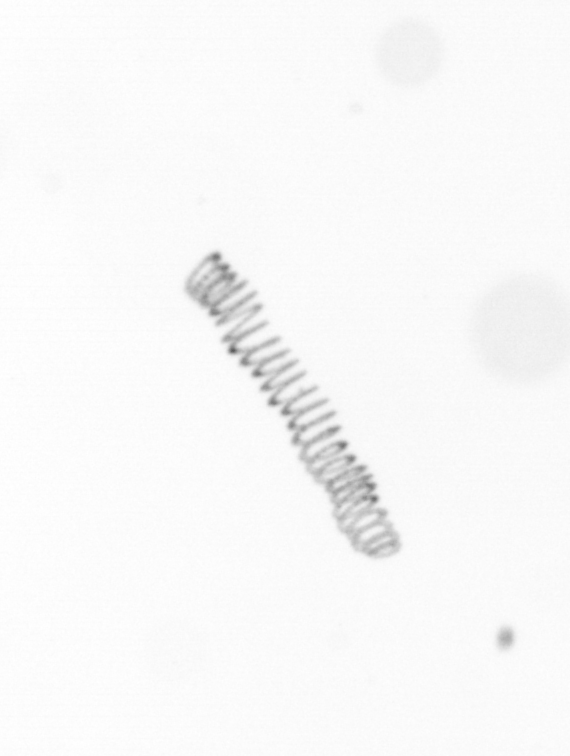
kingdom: Chromista
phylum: Ochrophyta
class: Bacillariophyceae
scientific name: Bacillariophyceae
